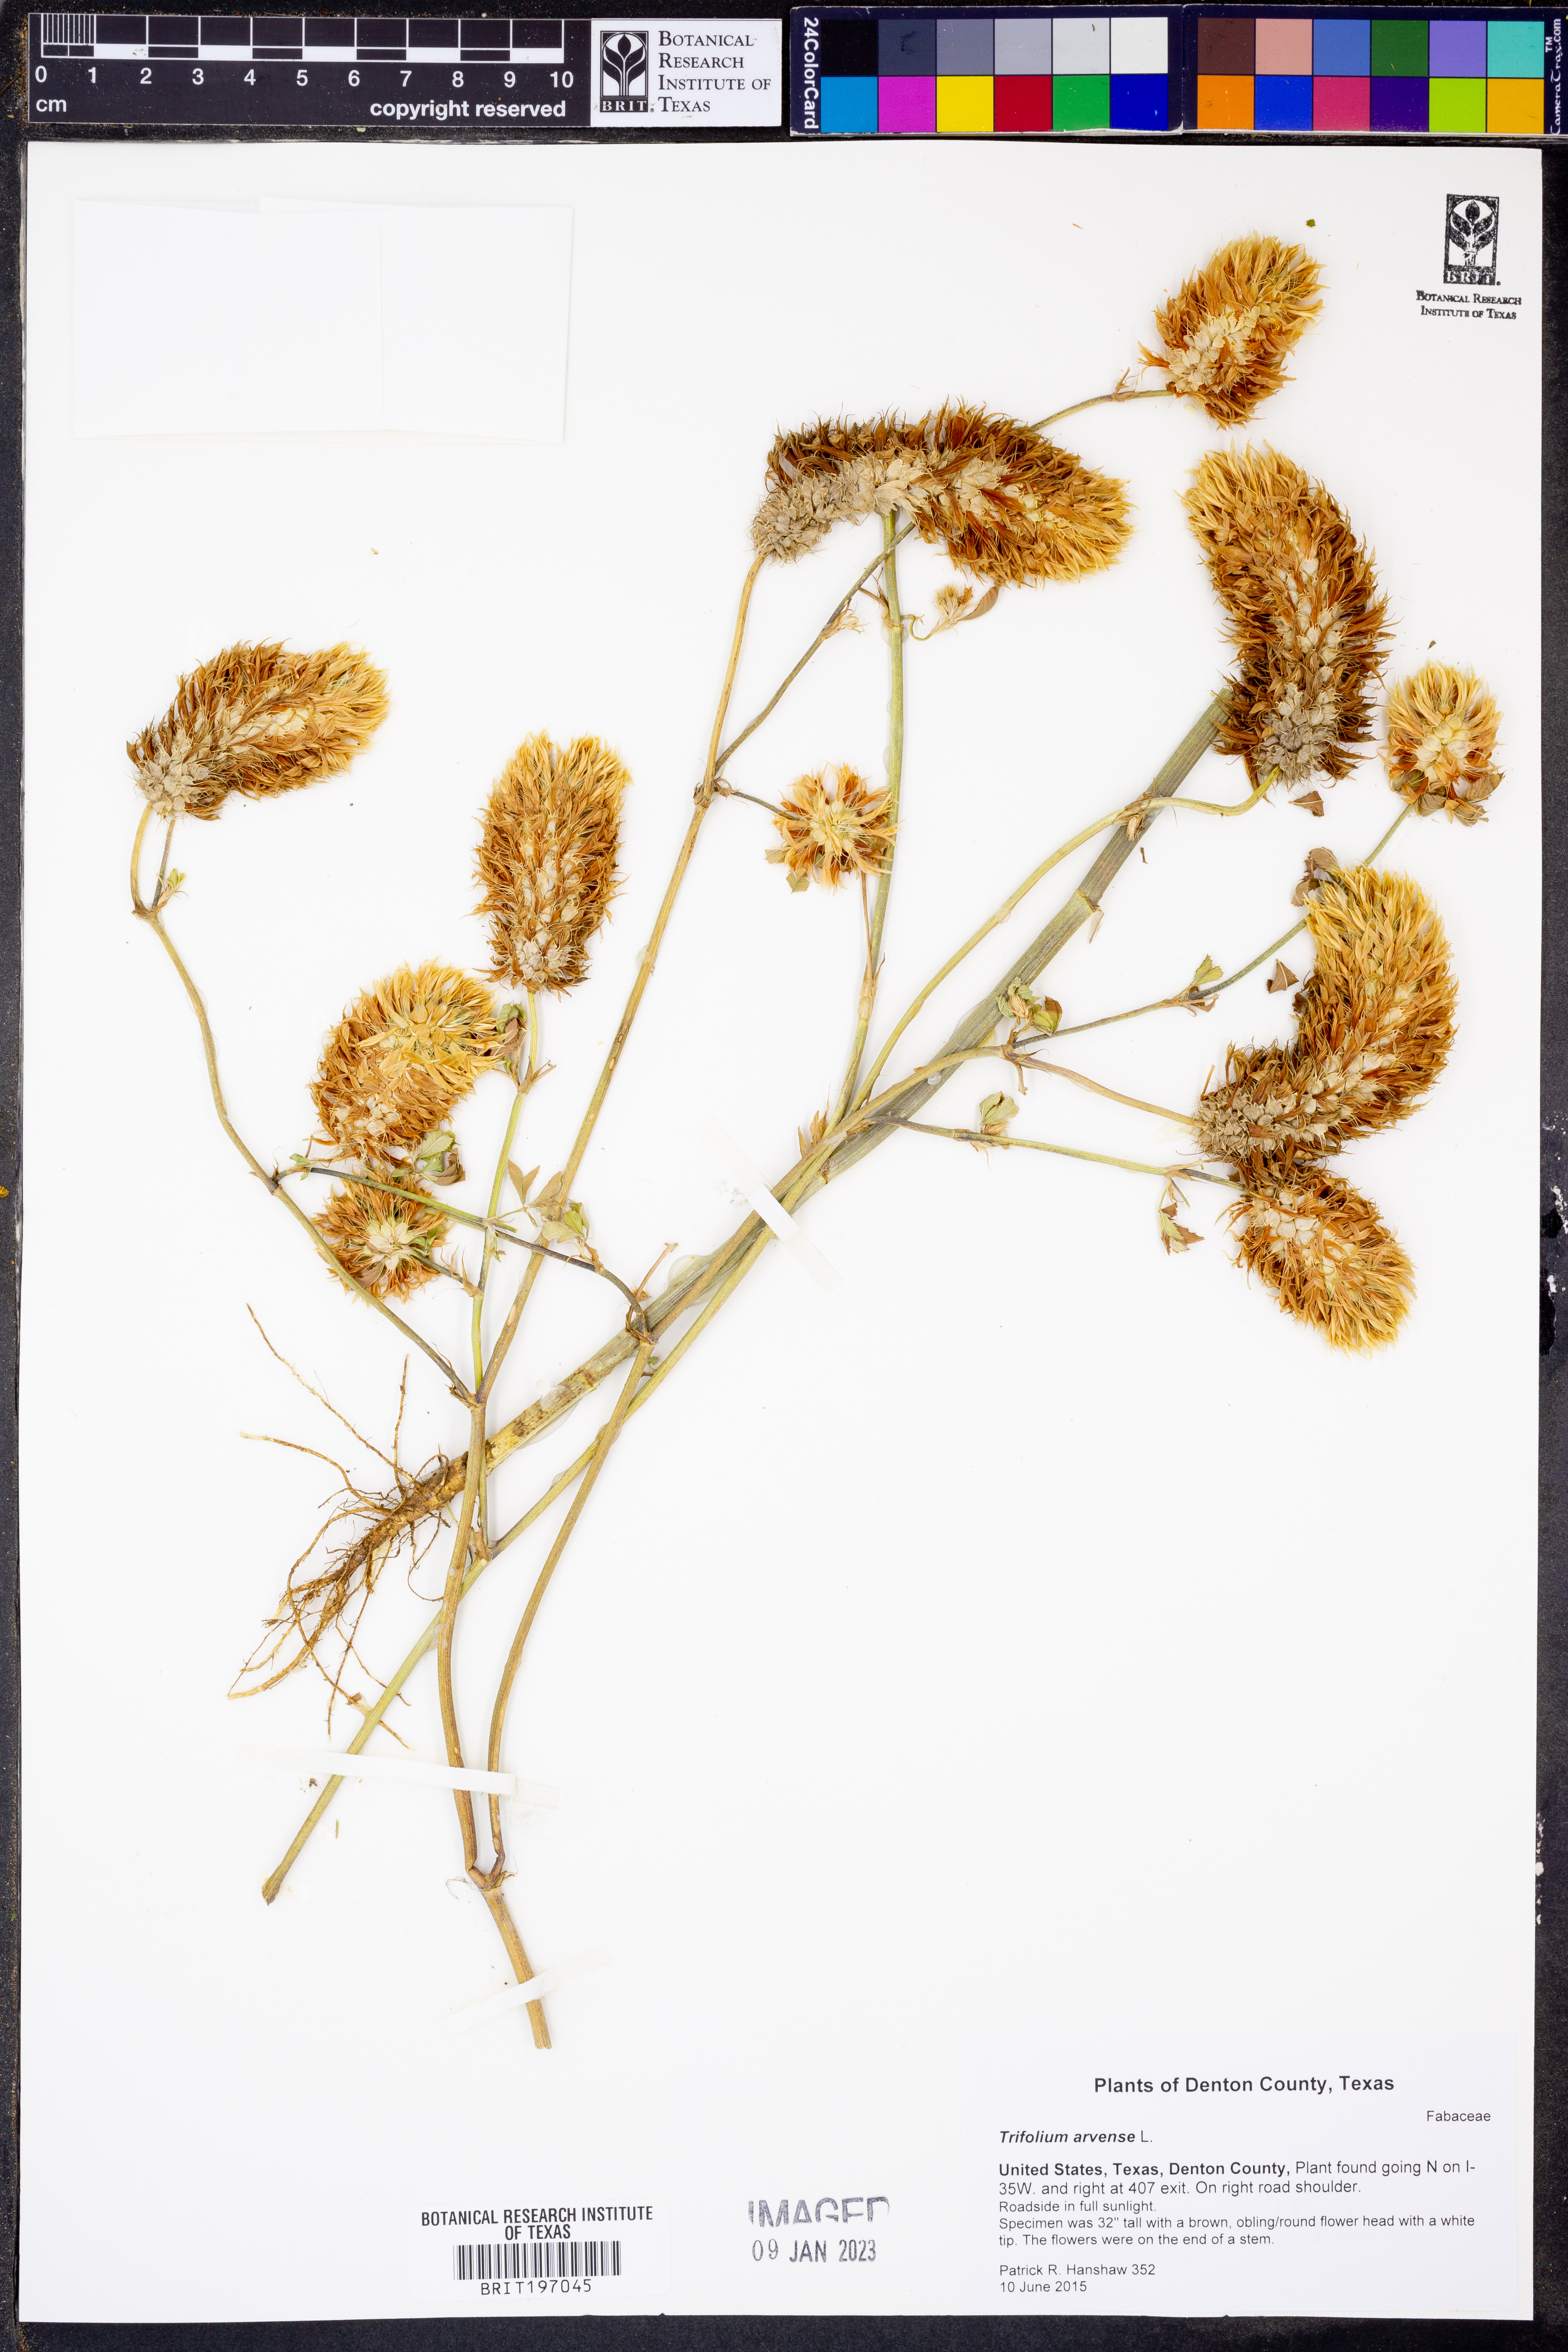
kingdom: Plantae
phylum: Tracheophyta
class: Magnoliopsida
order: Fabales
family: Fabaceae
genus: Trifolium
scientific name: Trifolium arvense
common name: Hare's-foot clover
